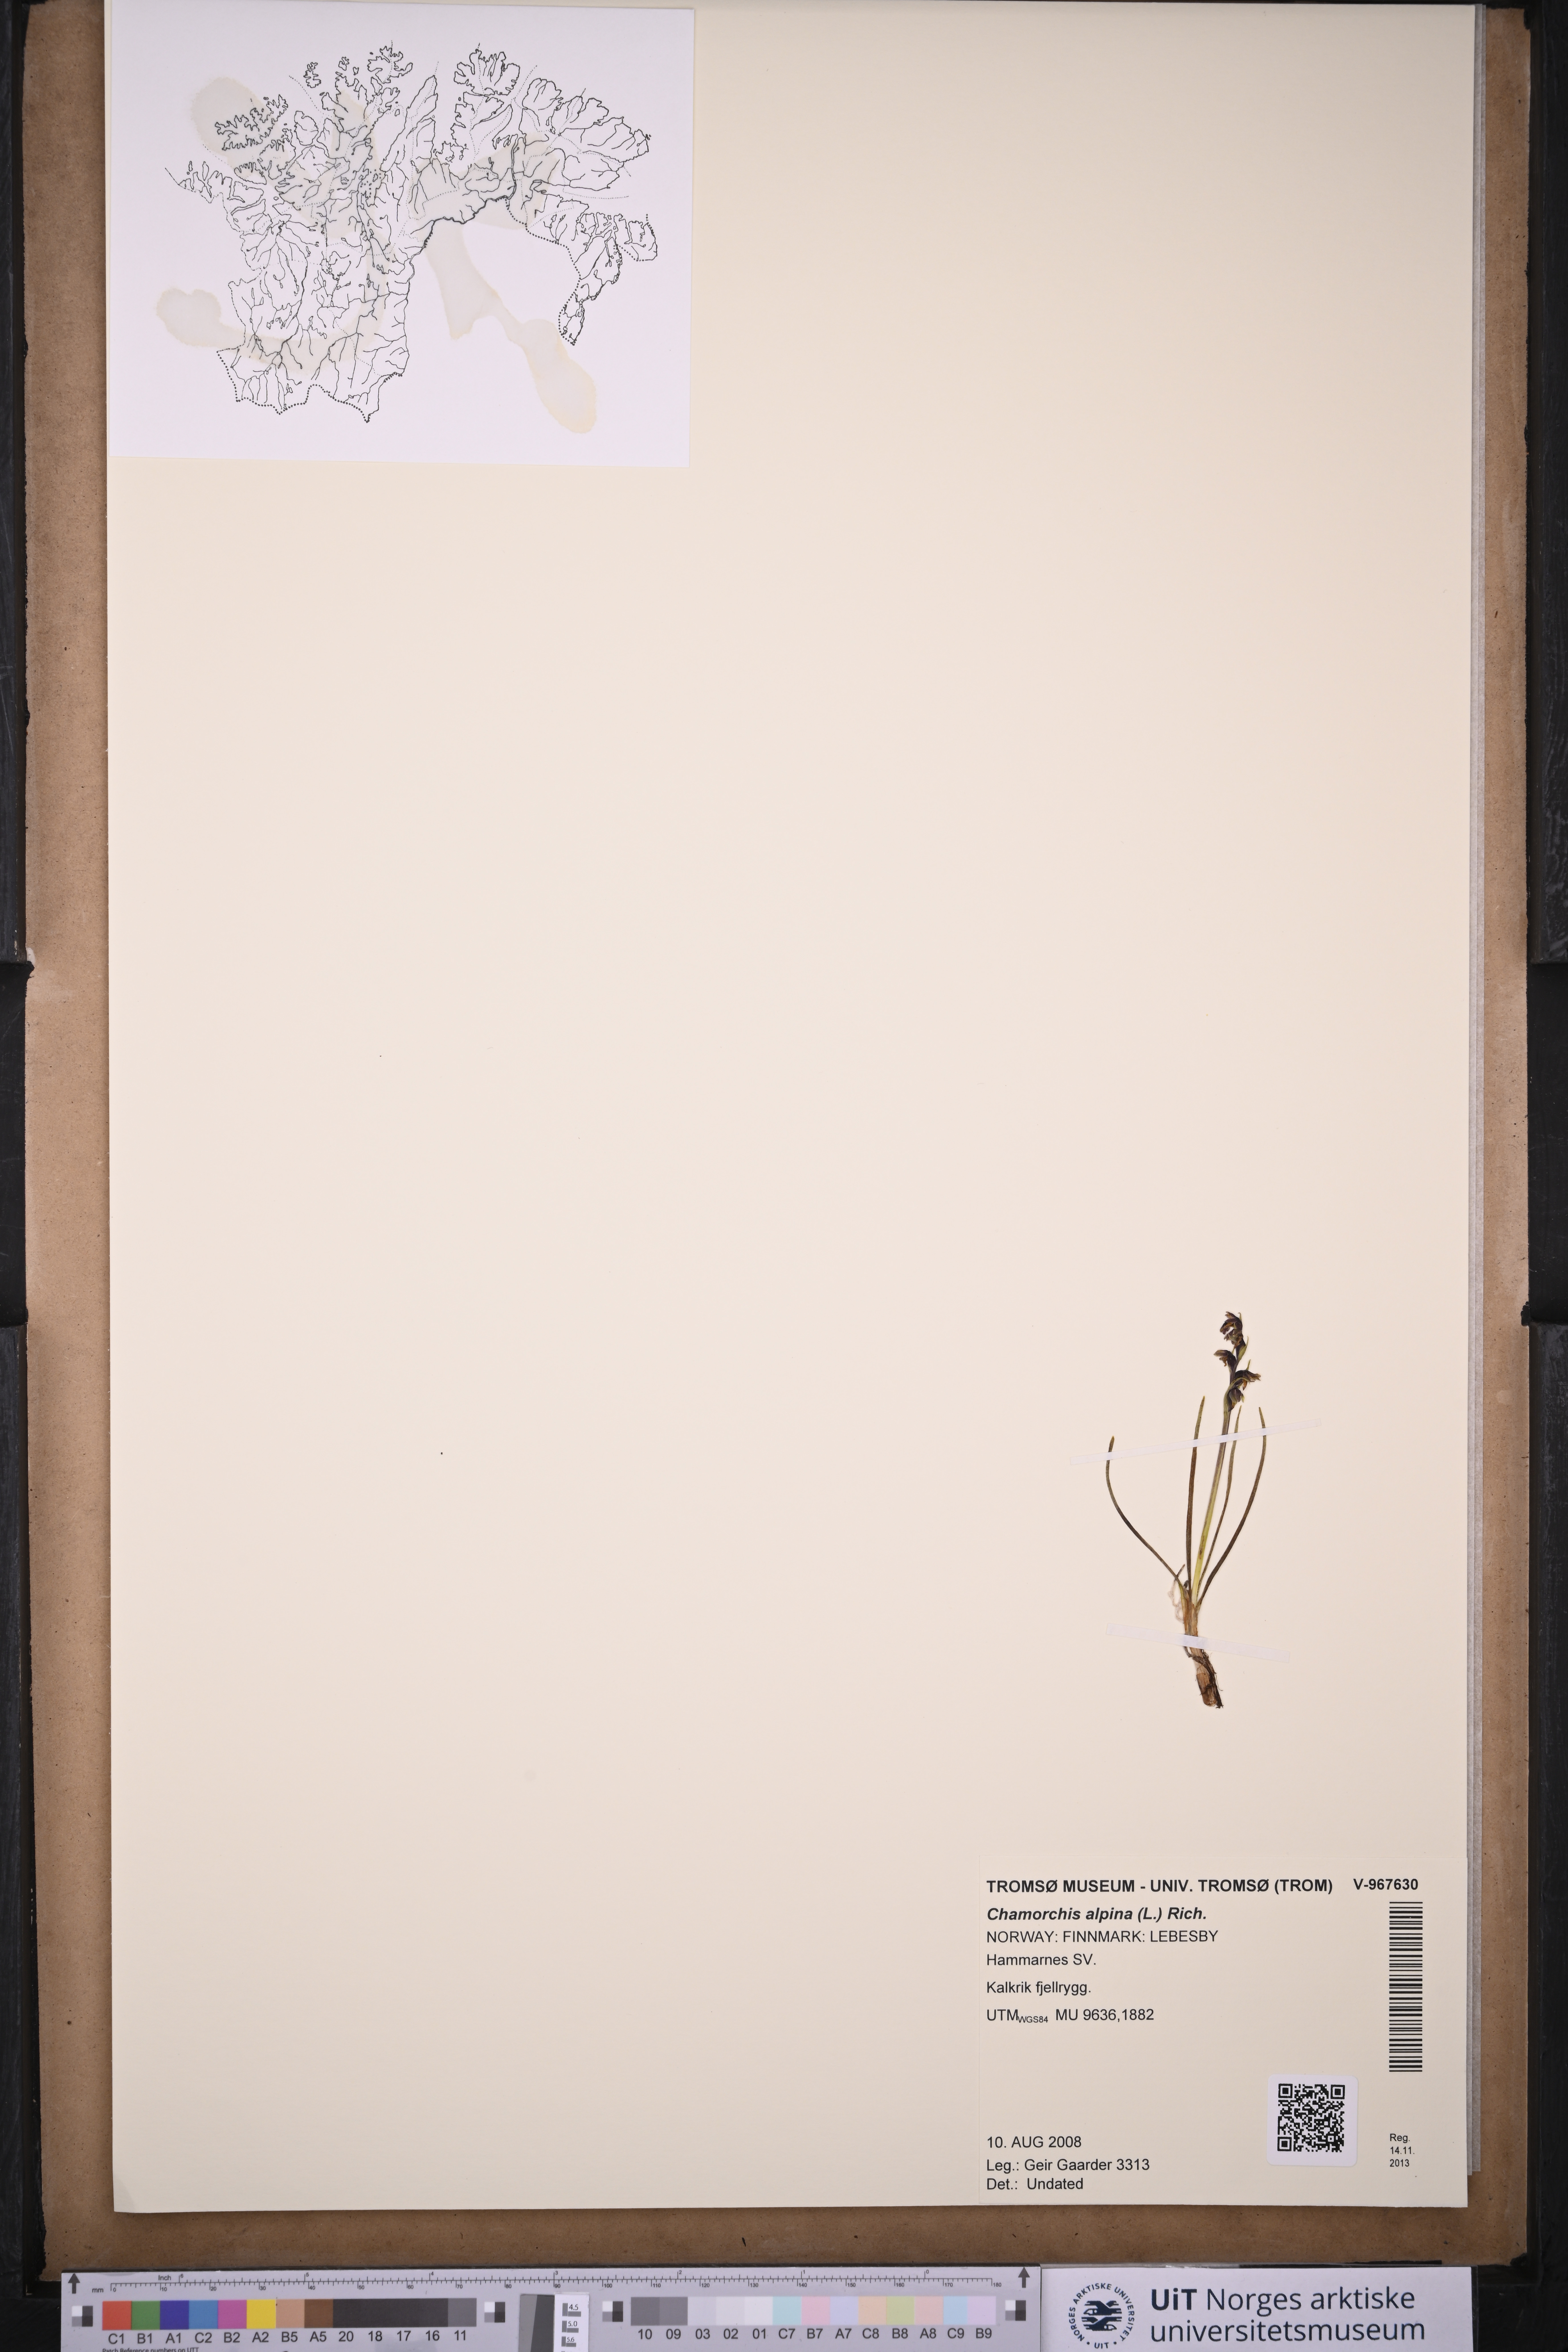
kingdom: Plantae
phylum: Tracheophyta
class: Liliopsida
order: Asparagales
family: Orchidaceae
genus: Chamorchis
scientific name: Chamorchis alpina
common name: Alpine chamorchis
